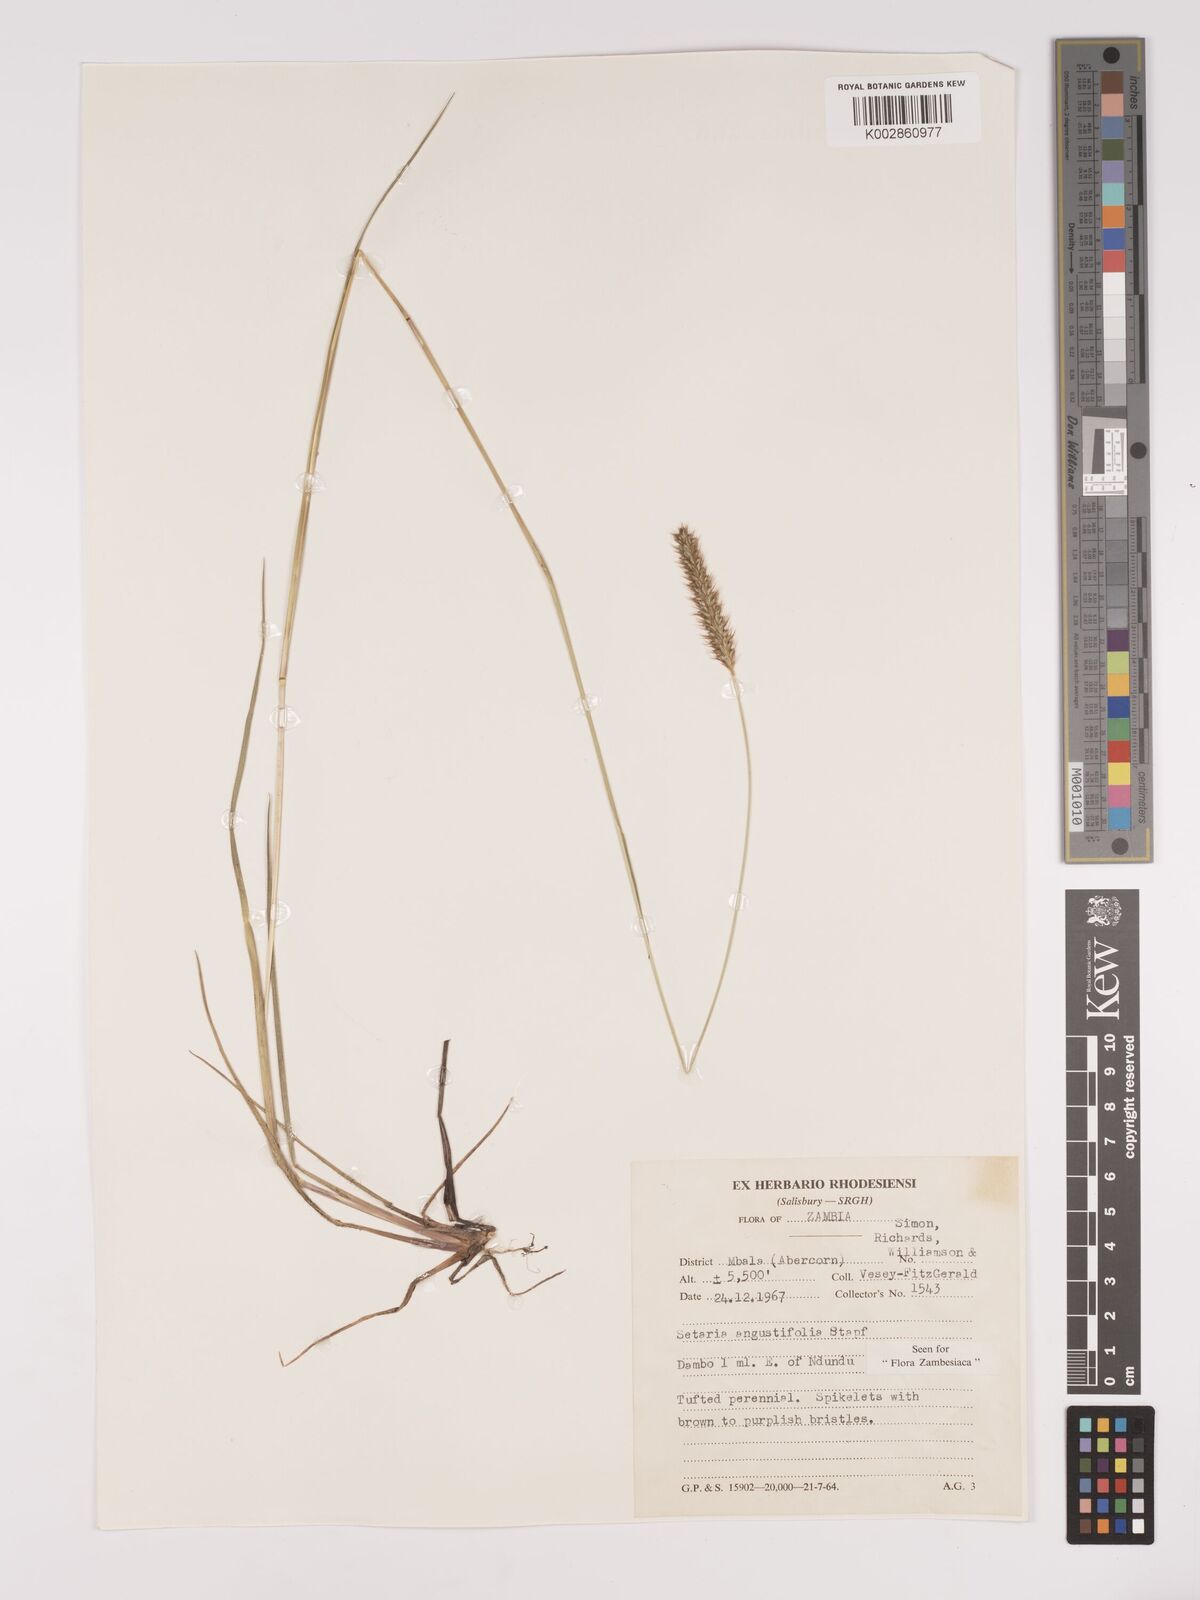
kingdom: Plantae
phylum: Tracheophyta
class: Liliopsida
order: Poales
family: Poaceae
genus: Setaria
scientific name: Setaria
